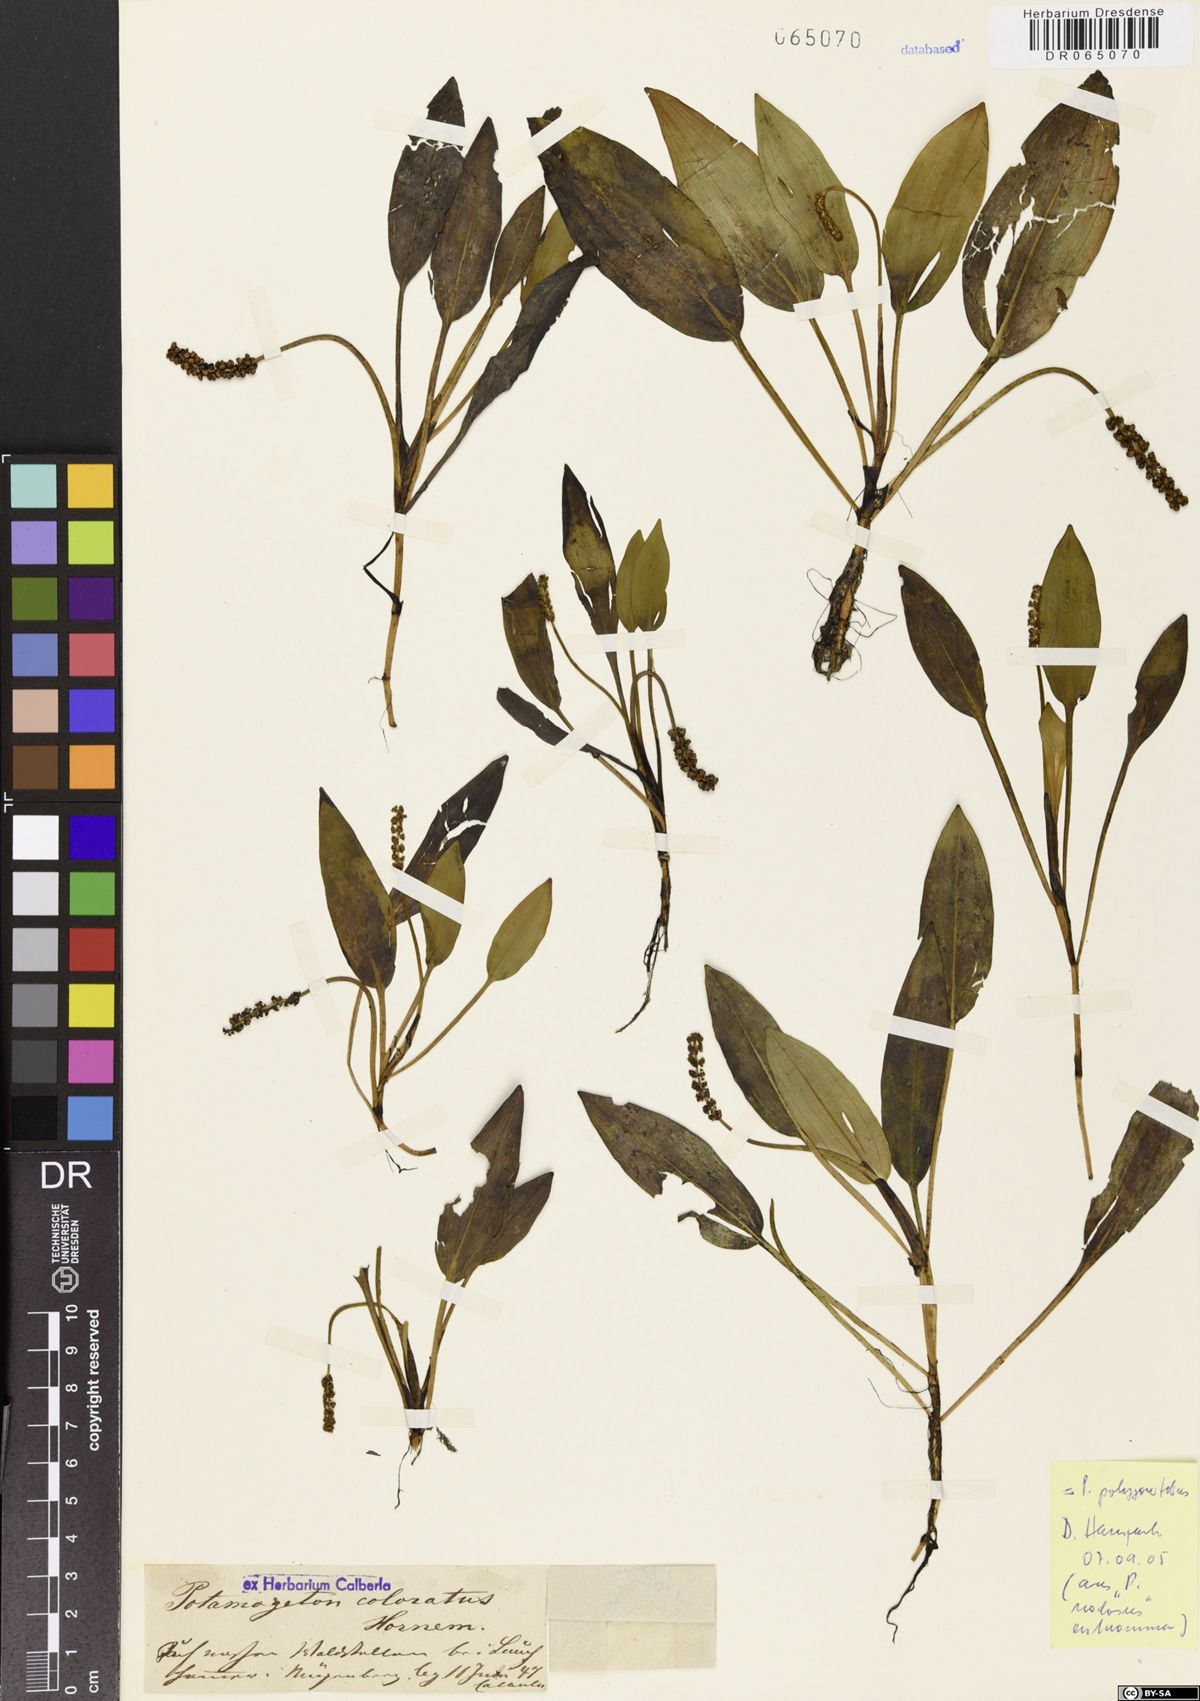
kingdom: Plantae
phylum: Tracheophyta
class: Liliopsida
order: Alismatales
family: Potamogetonaceae
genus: Potamogeton
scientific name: Potamogeton polygonifolius
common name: Bog pondweed
